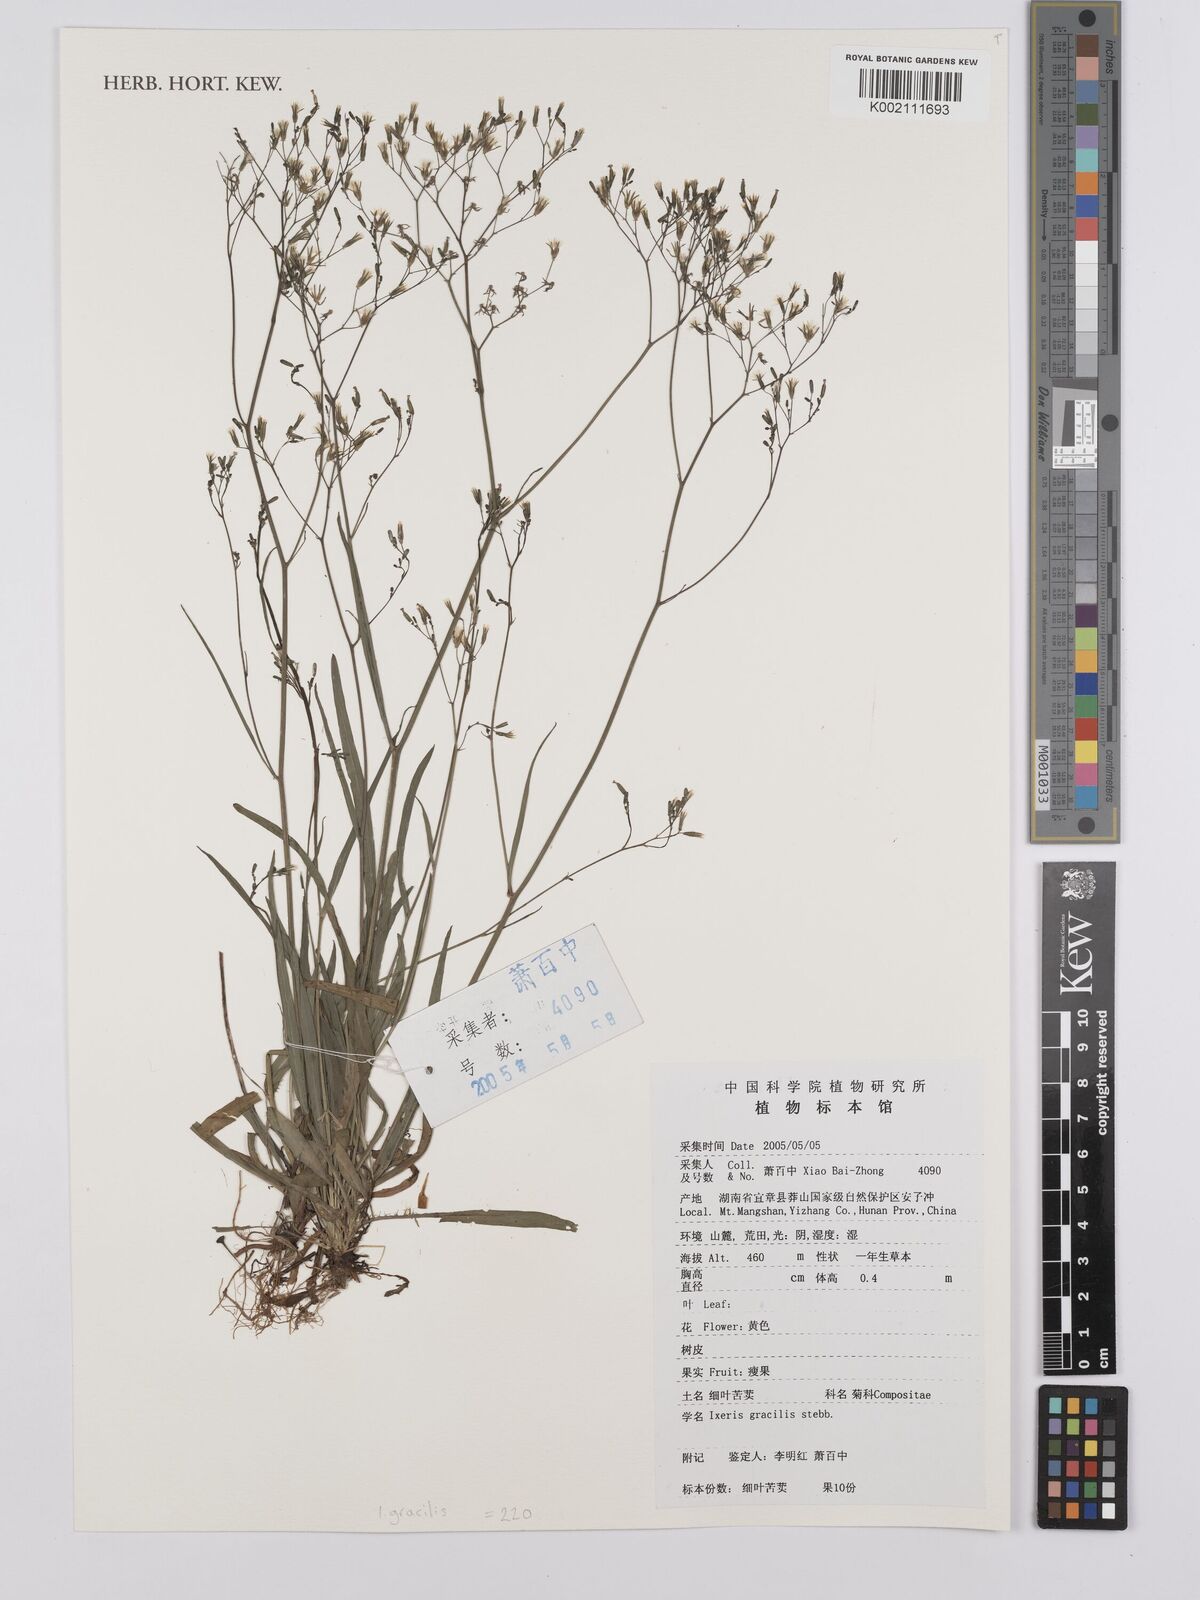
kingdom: Plantae
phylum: Tracheophyta
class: Magnoliopsida
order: Asterales
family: Asteraceae
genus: Ixeridium
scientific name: Ixeridium
